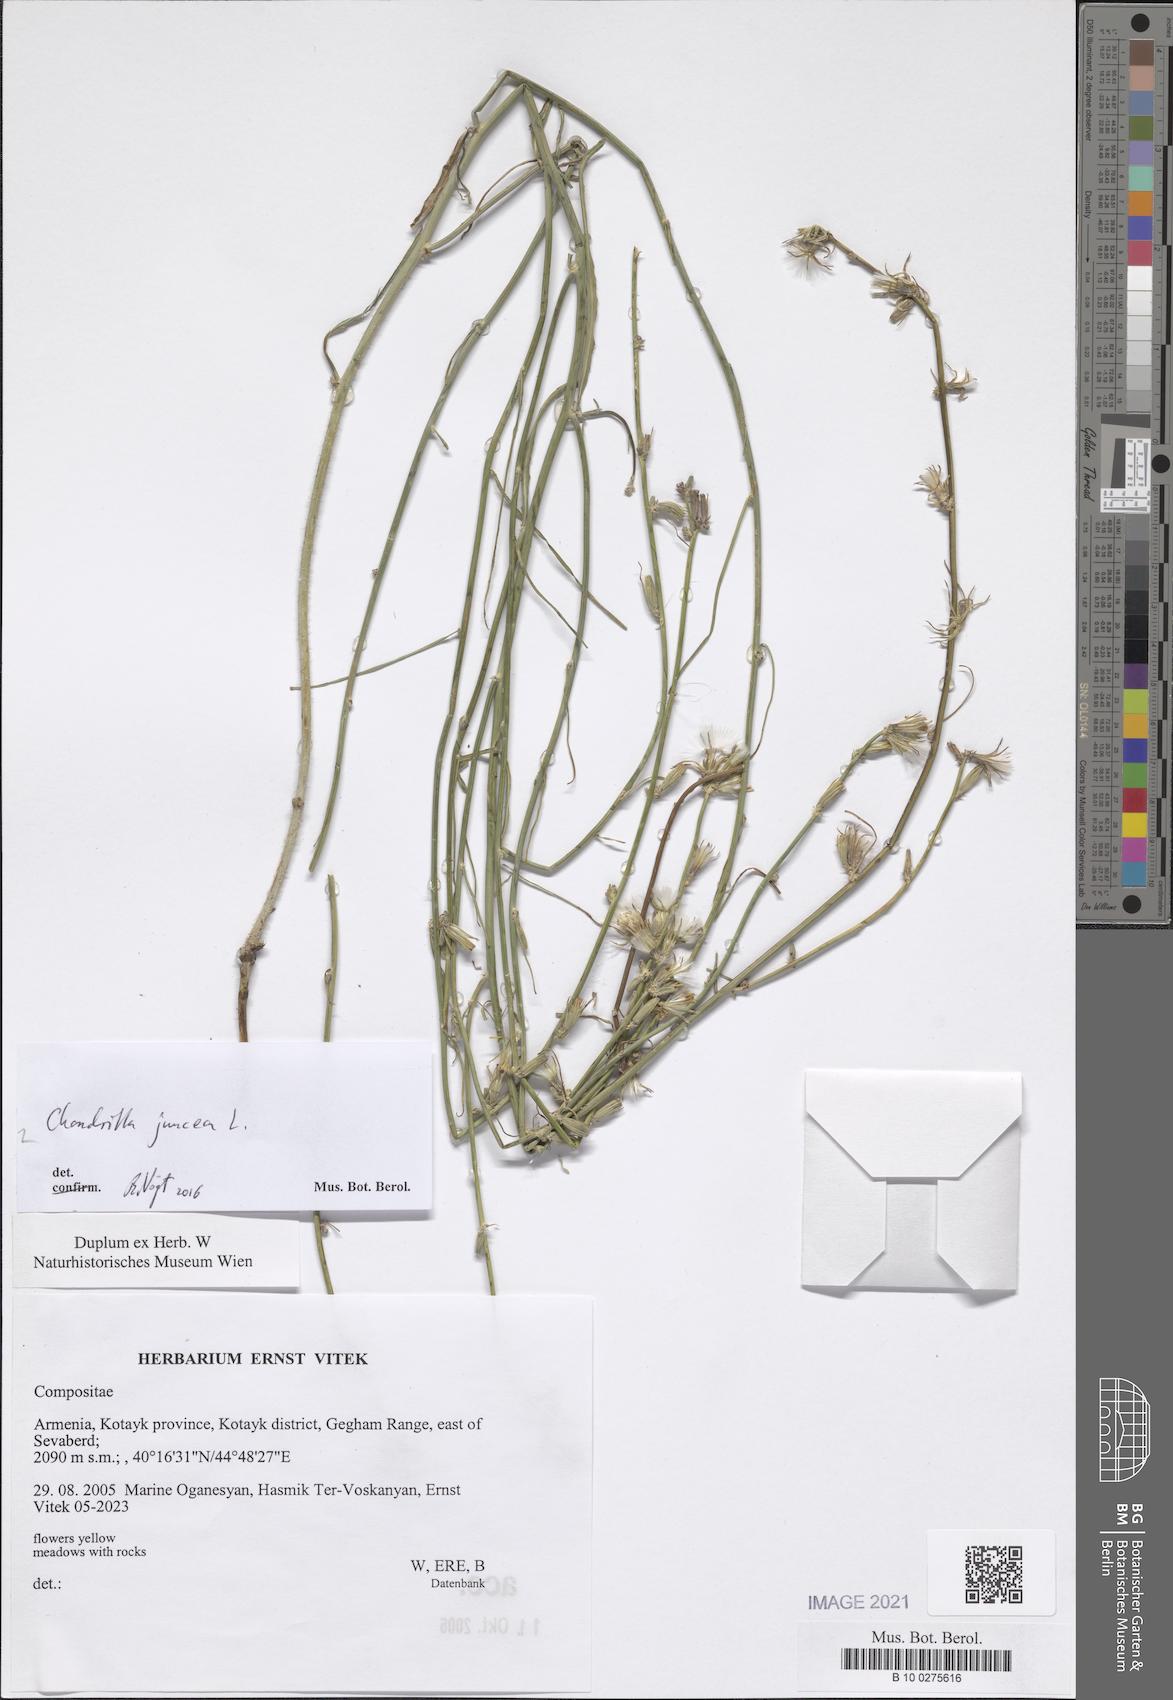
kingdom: Plantae
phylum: Tracheophyta
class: Magnoliopsida
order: Asterales
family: Asteraceae
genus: Chondrilla
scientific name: Chondrilla juncea
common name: Skeleton weed
